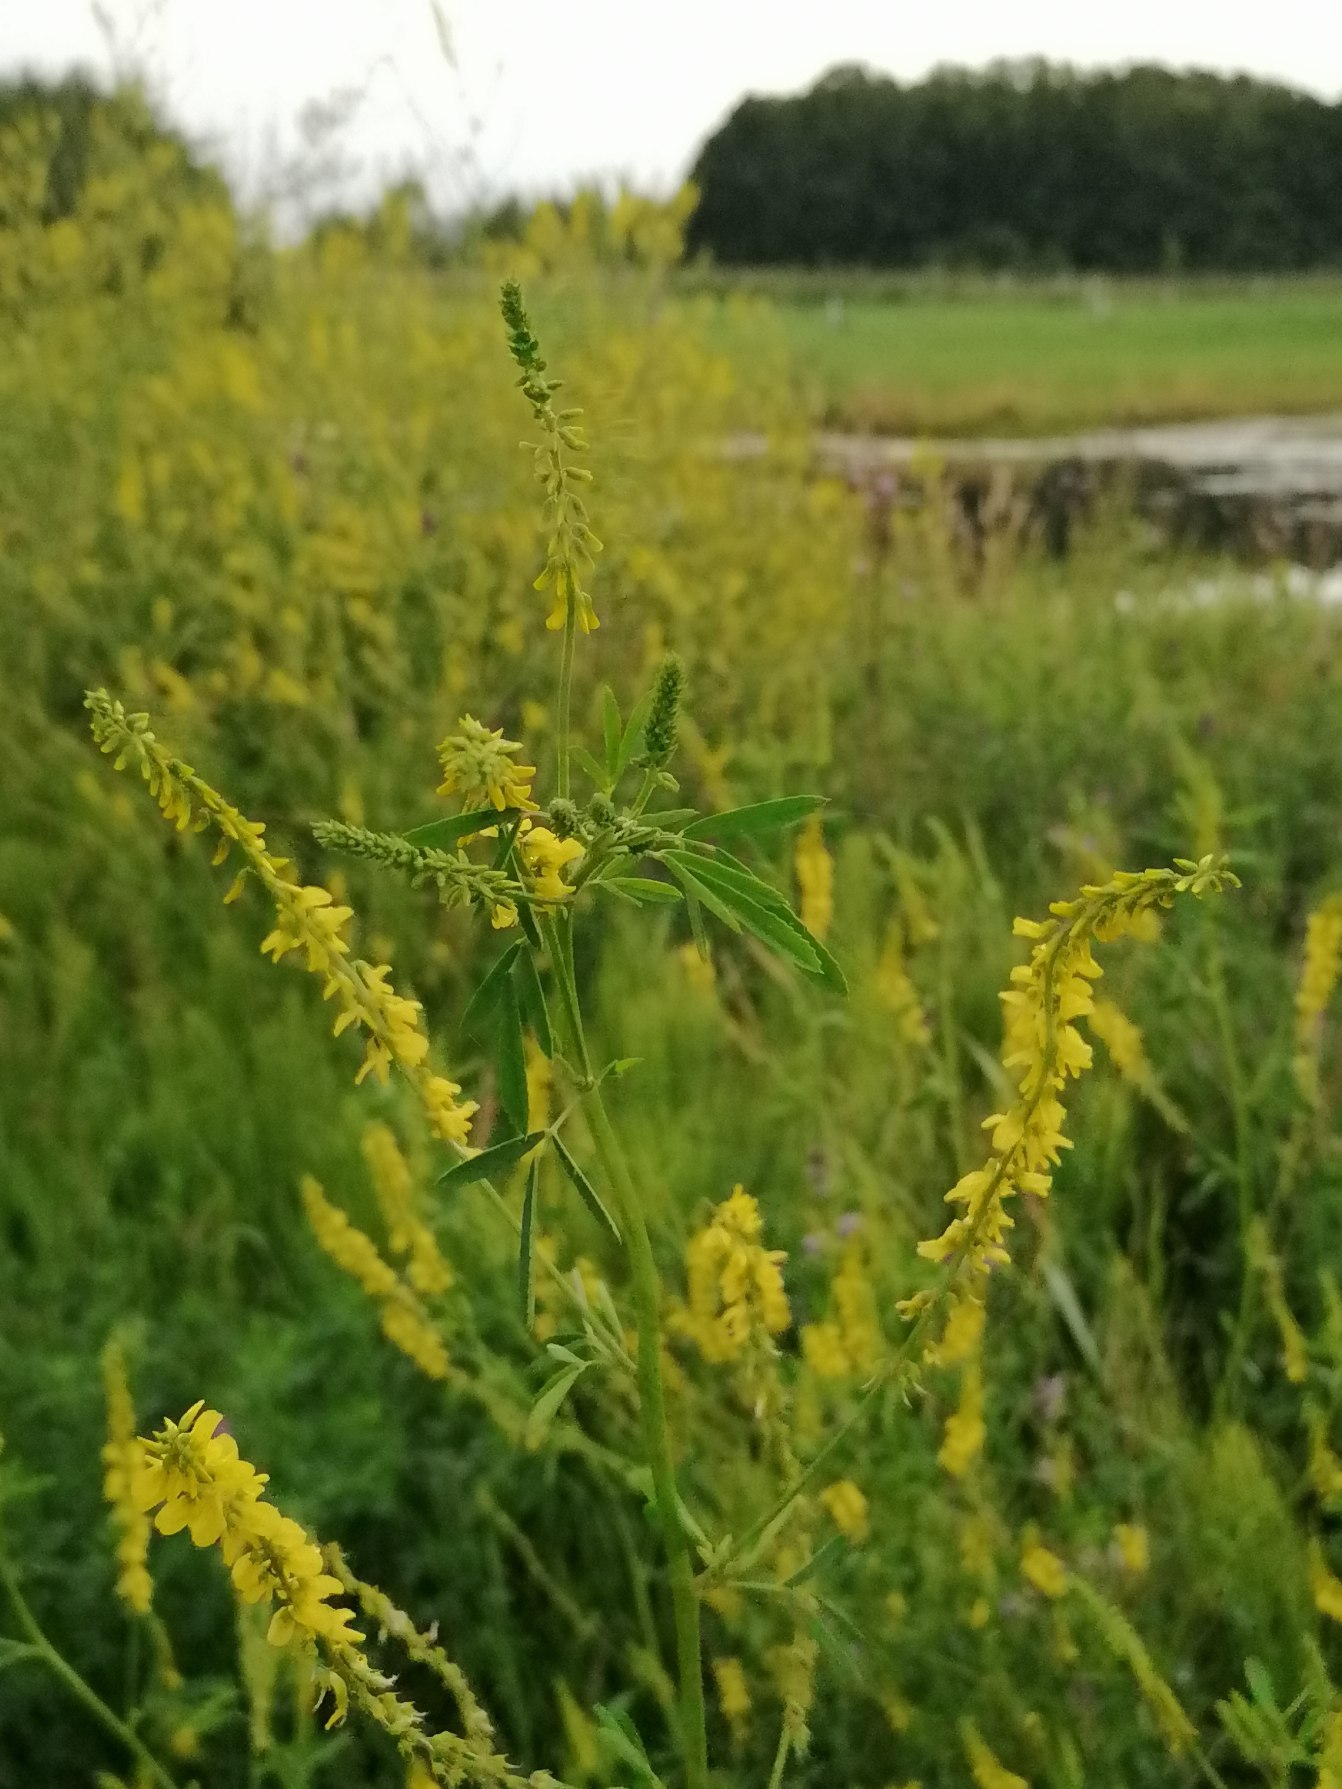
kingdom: Plantae
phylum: Tracheophyta
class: Magnoliopsida
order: Fabales
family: Fabaceae
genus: Melilotus
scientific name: Melilotus
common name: Stenkløverslægten
